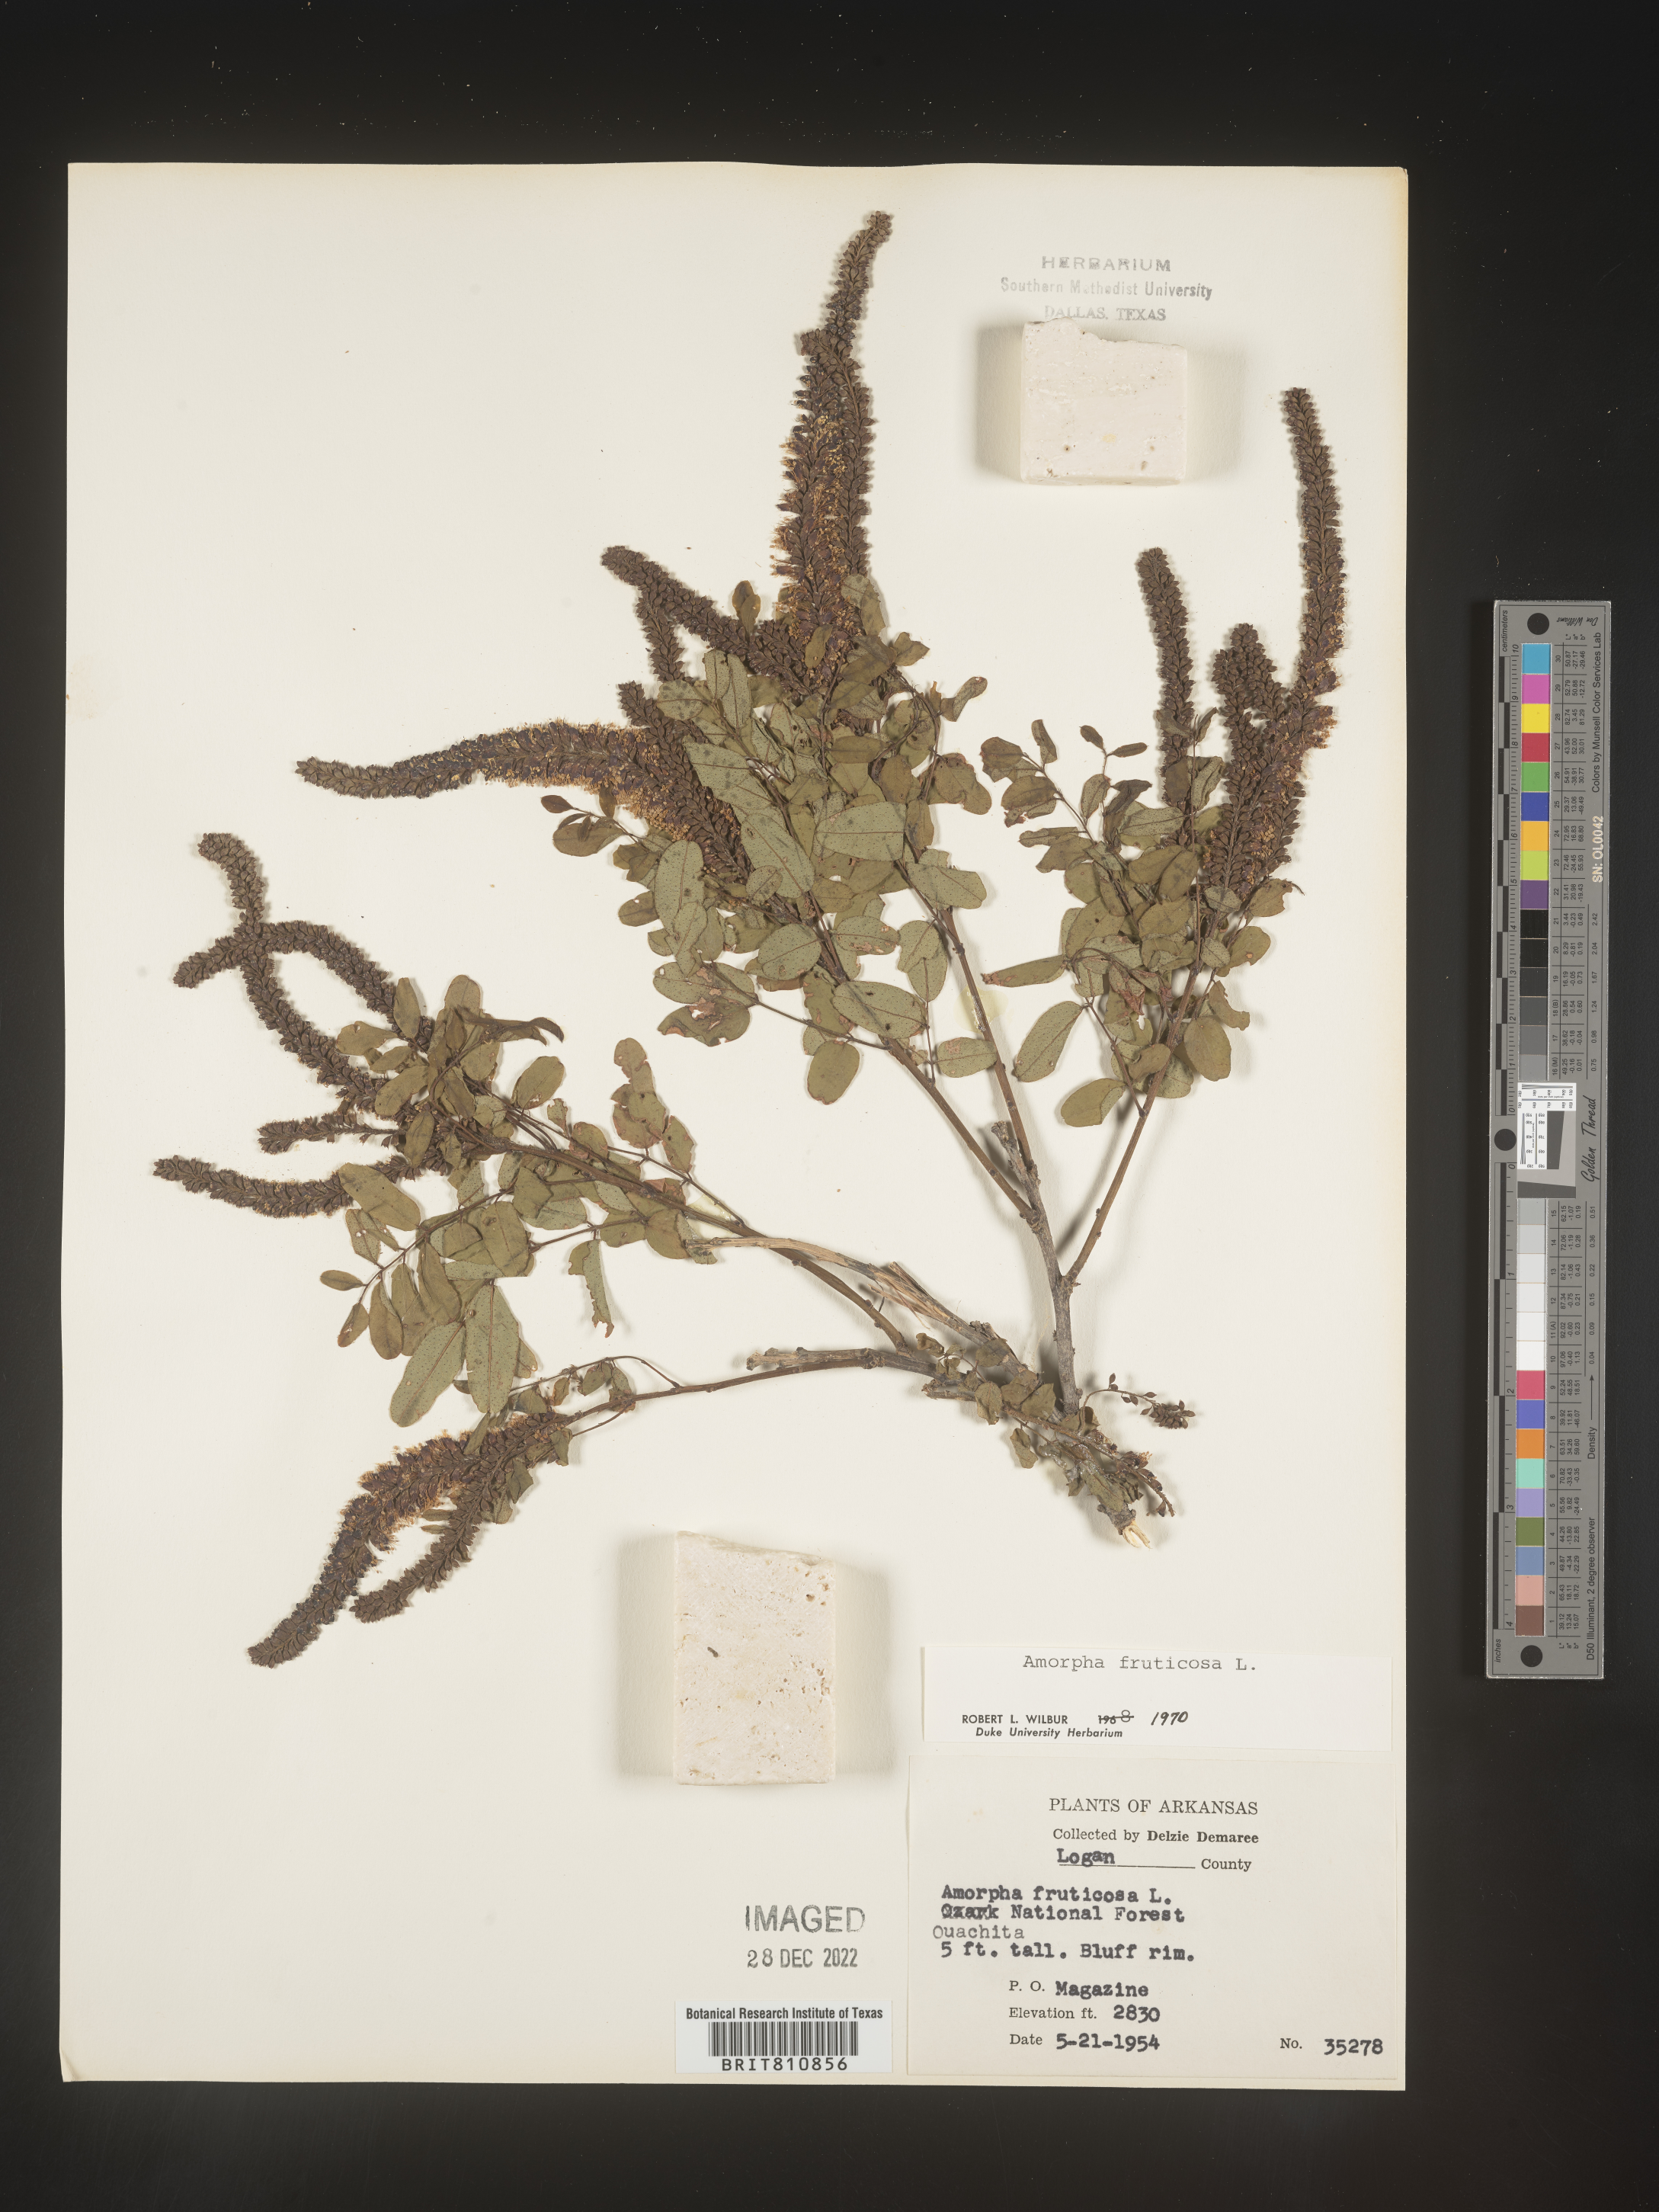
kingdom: Plantae
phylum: Tracheophyta
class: Magnoliopsida
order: Fabales
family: Fabaceae
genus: Amorpha
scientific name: Amorpha fruticosa
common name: False indigo
